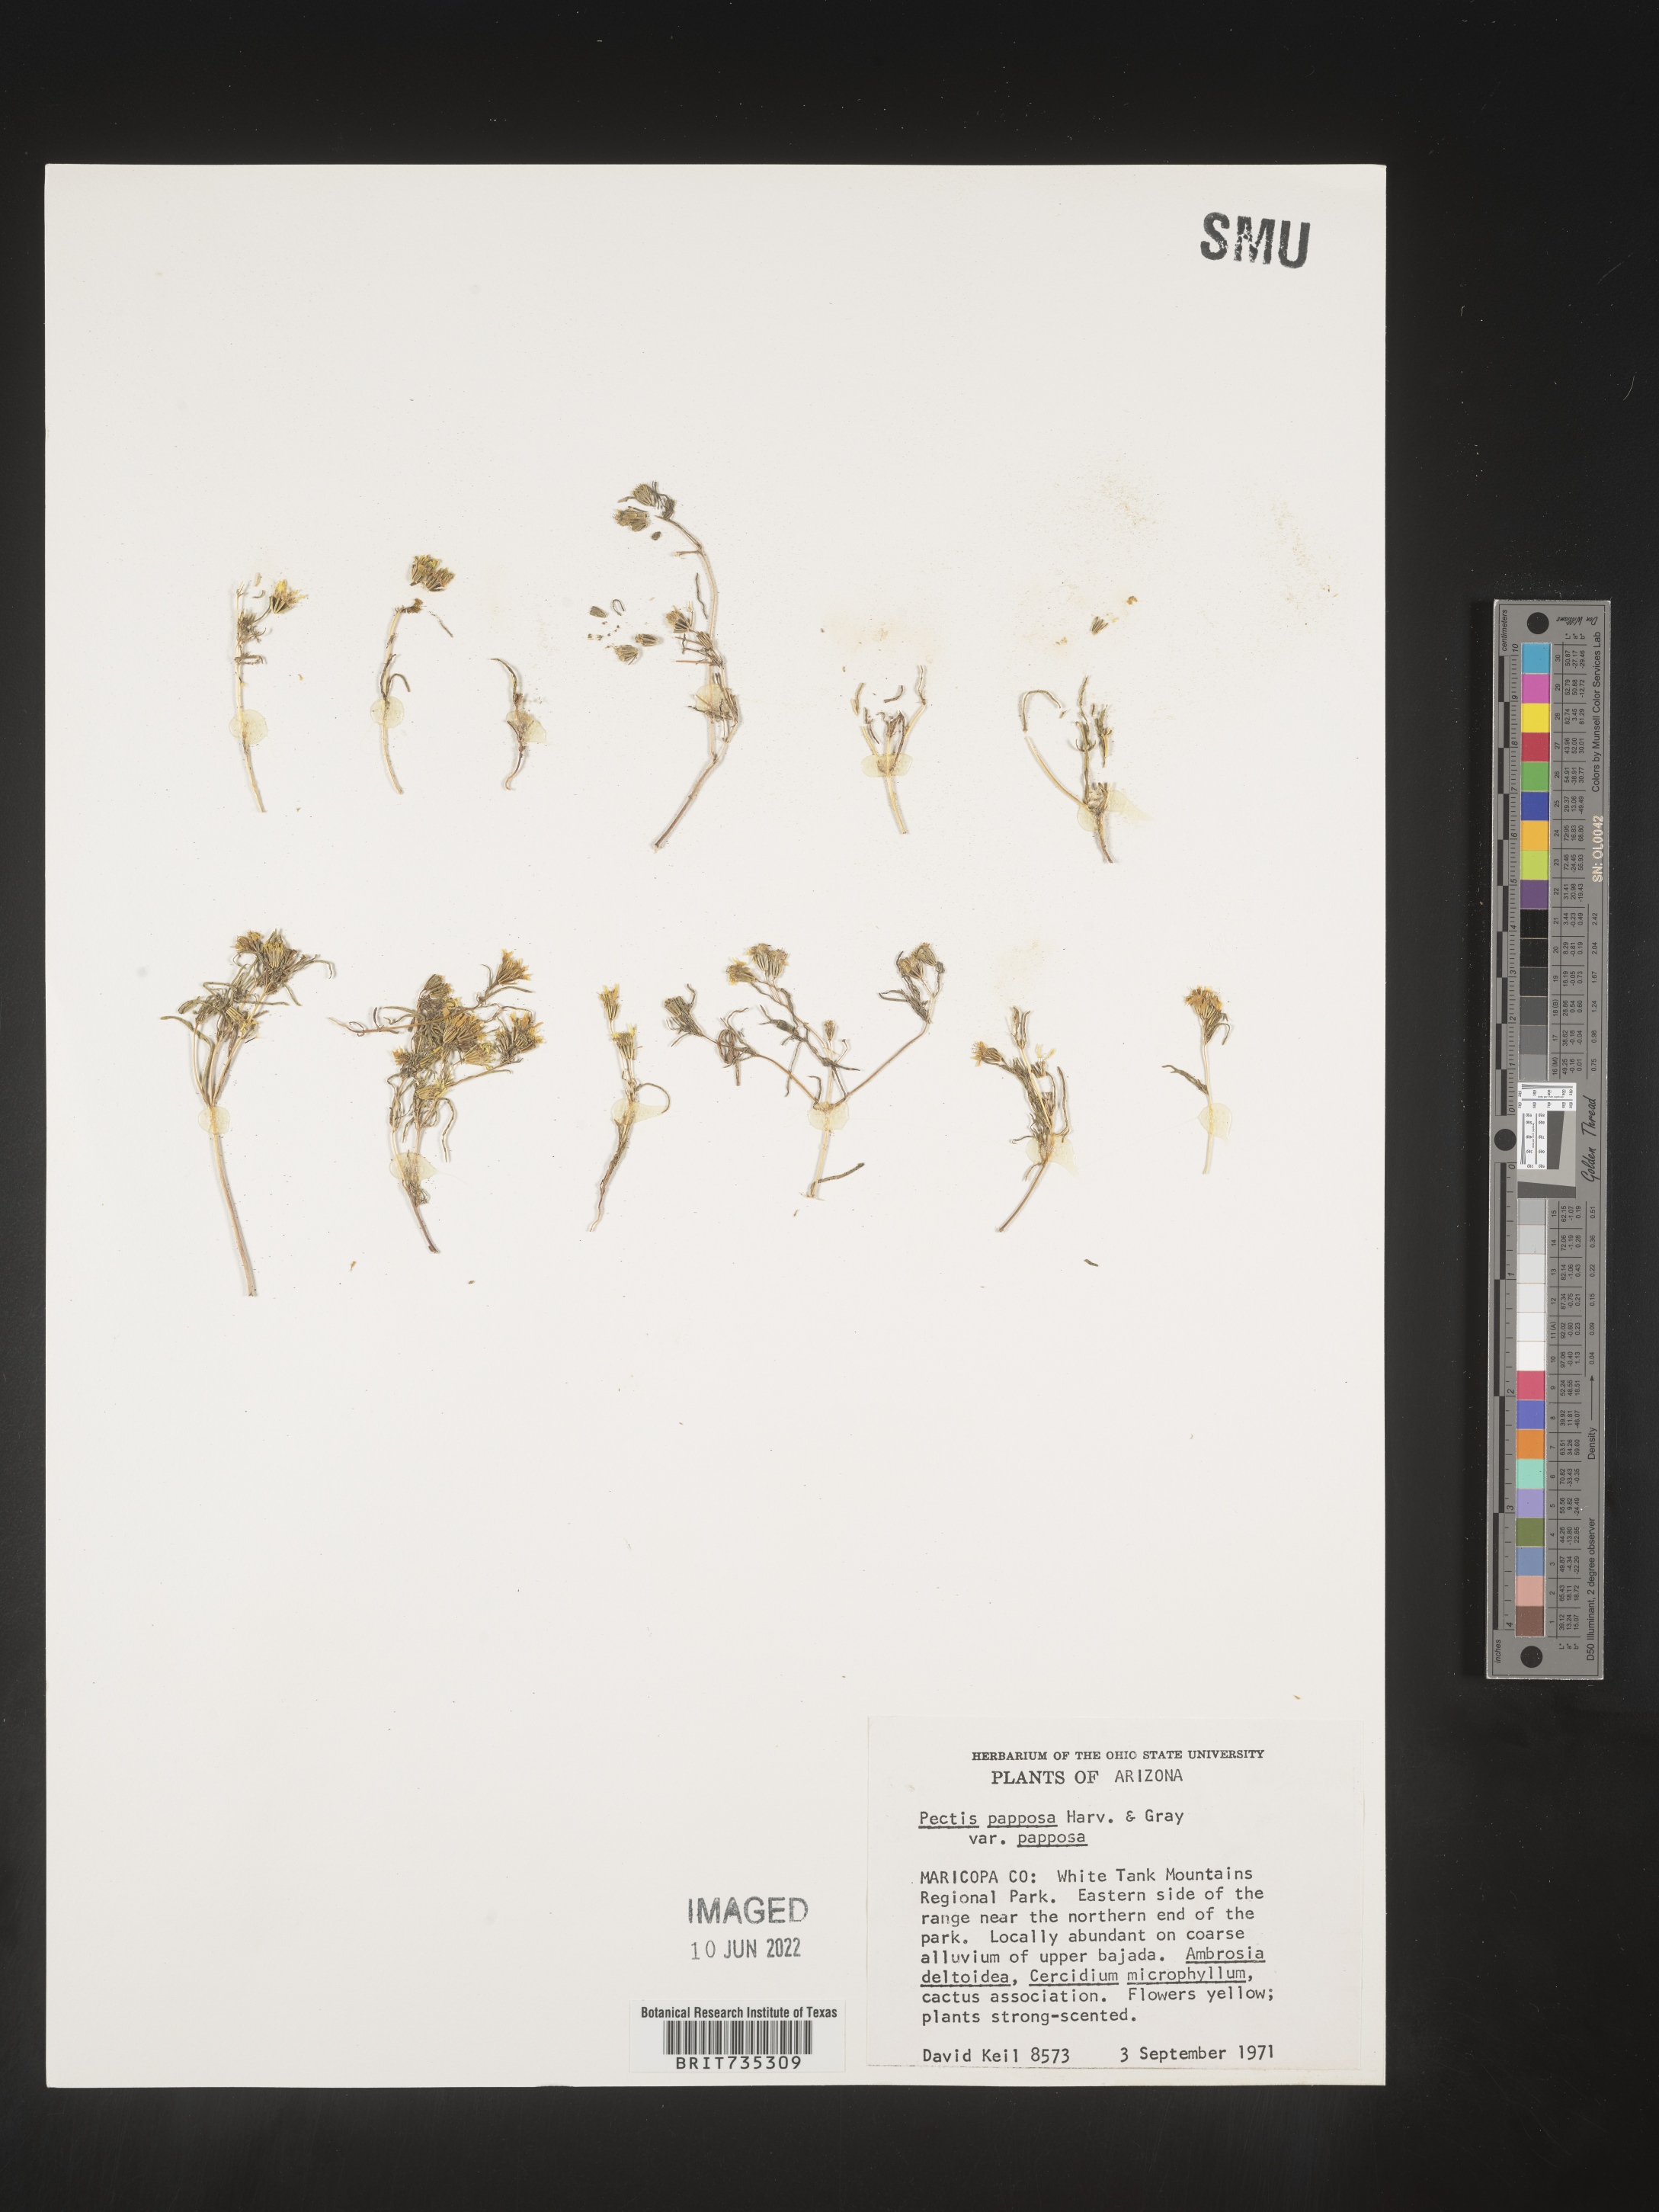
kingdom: Plantae
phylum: Tracheophyta
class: Magnoliopsida
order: Asterales
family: Asteraceae
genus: Pectis
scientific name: Pectis papposa
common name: Many-bristle chinchweed
